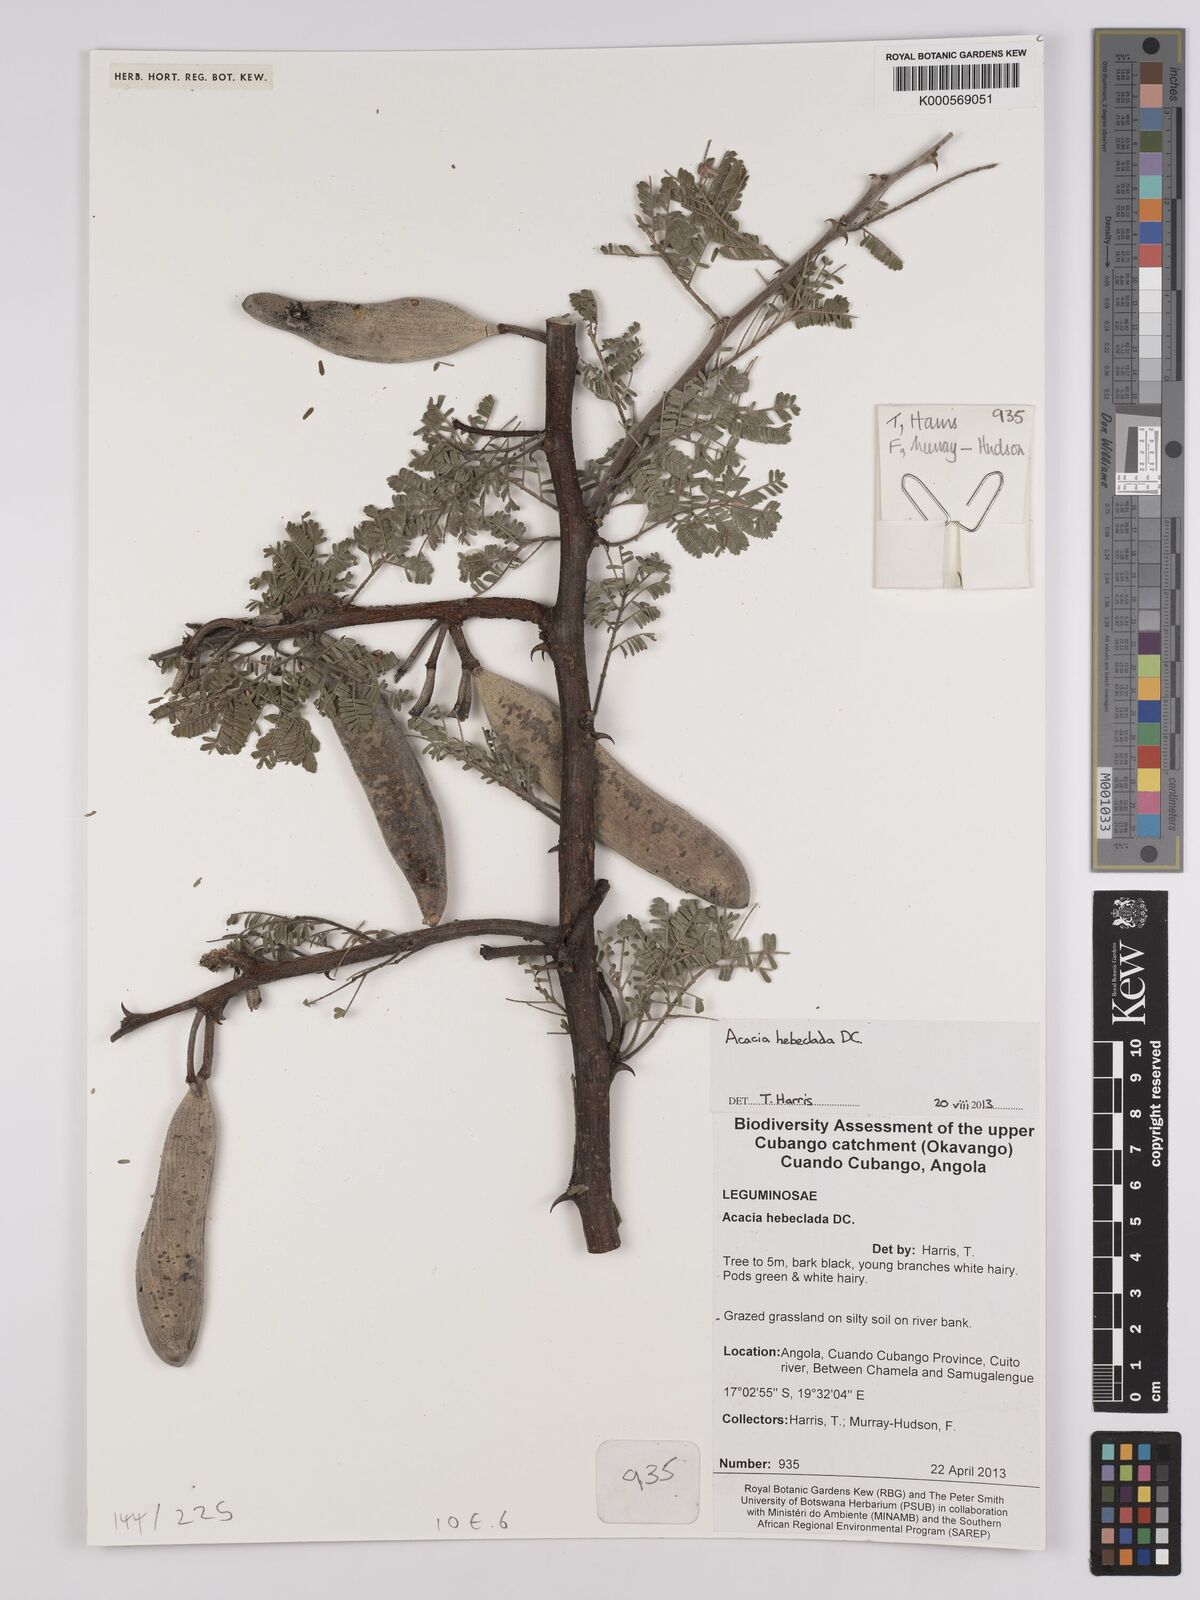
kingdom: Plantae
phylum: Tracheophyta
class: Magnoliopsida
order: Fabales
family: Fabaceae
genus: Vachellia
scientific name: Vachellia hebeclada
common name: Candle thorn
